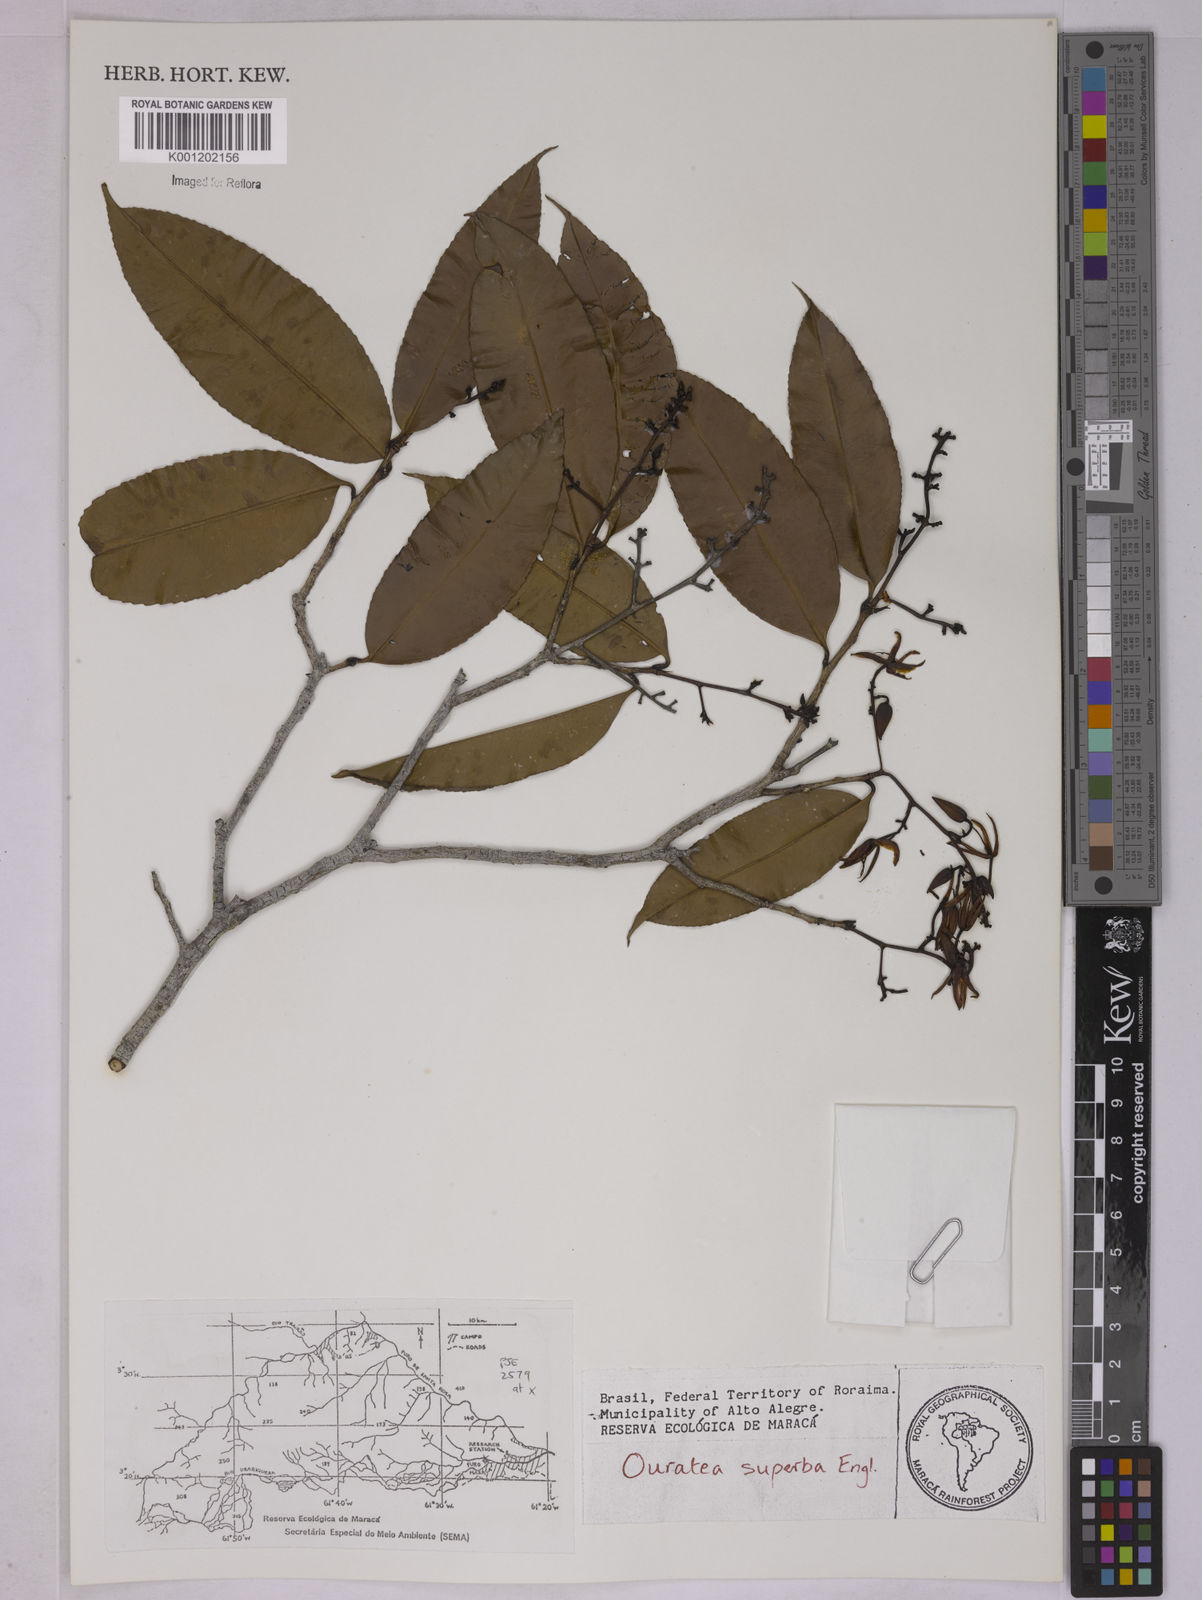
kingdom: Plantae
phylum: Tracheophyta
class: Magnoliopsida
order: Malpighiales
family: Ochnaceae
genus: Ouratea
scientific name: Ouratea superba
